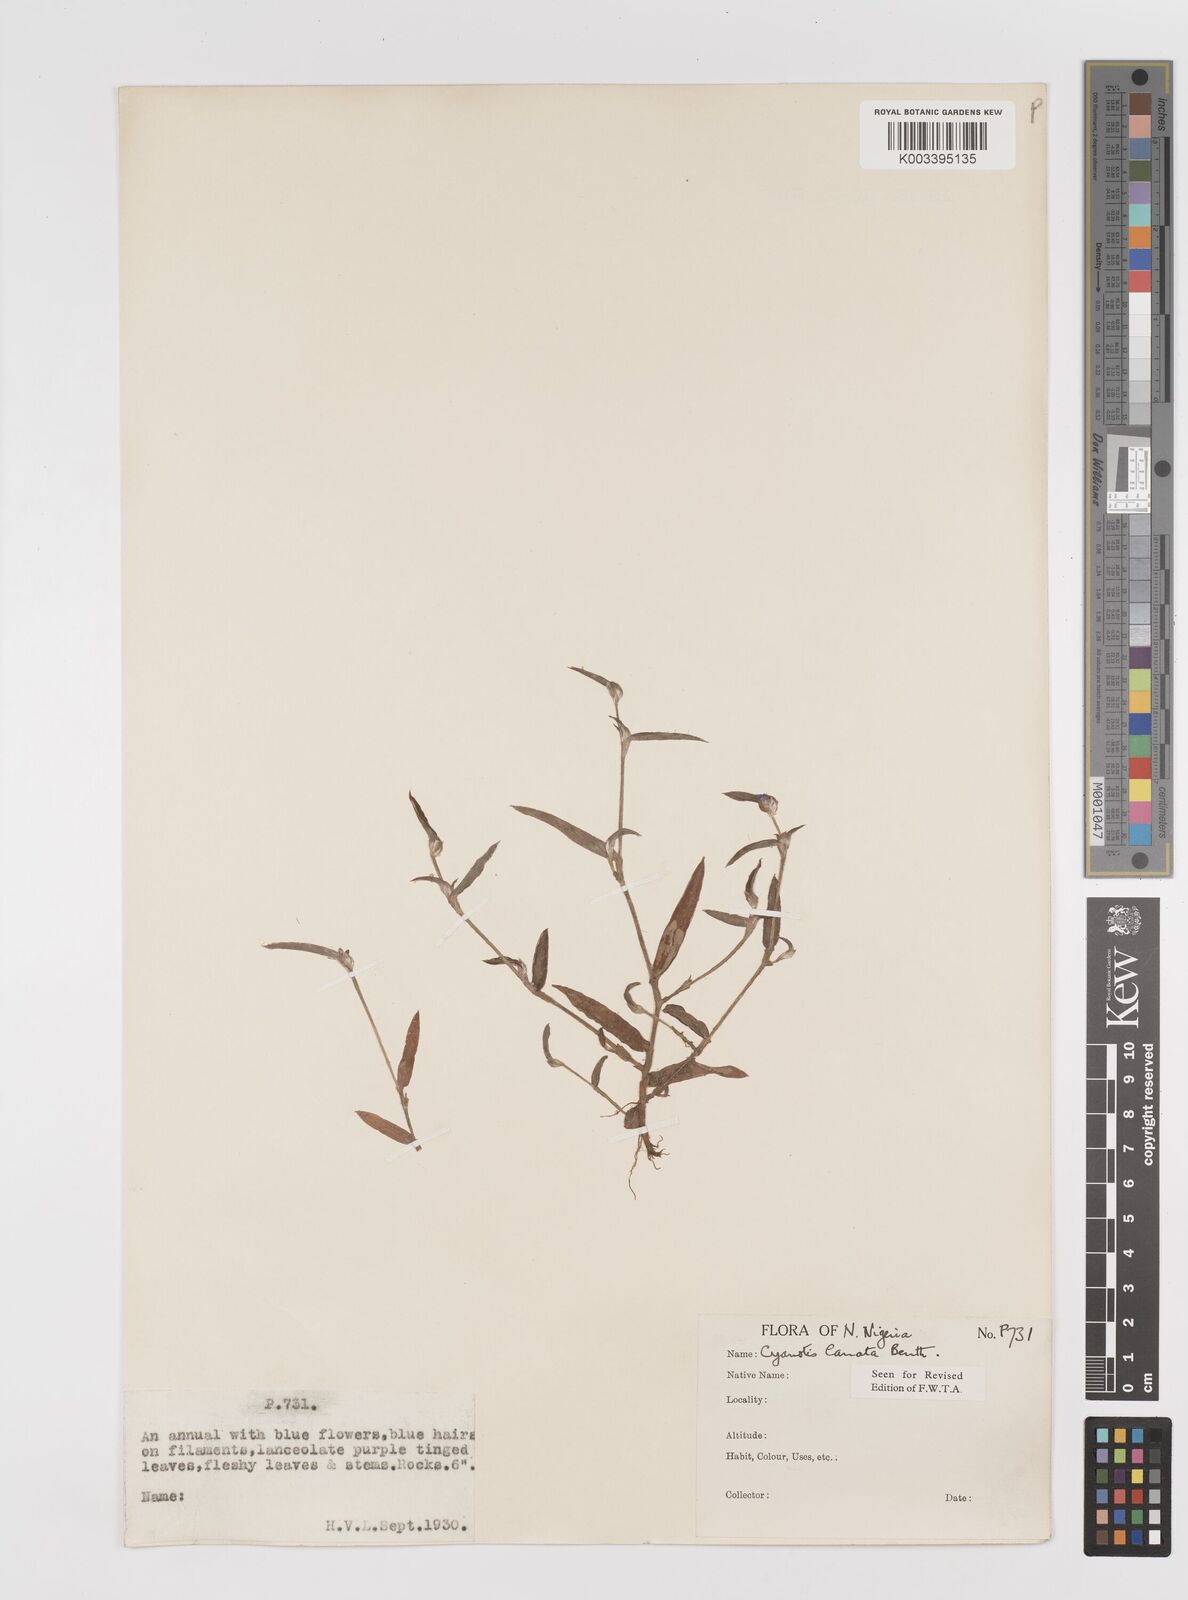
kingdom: Plantae
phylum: Tracheophyta
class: Liliopsida
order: Commelinales
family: Commelinaceae
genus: Cyanotis
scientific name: Cyanotis lanata
